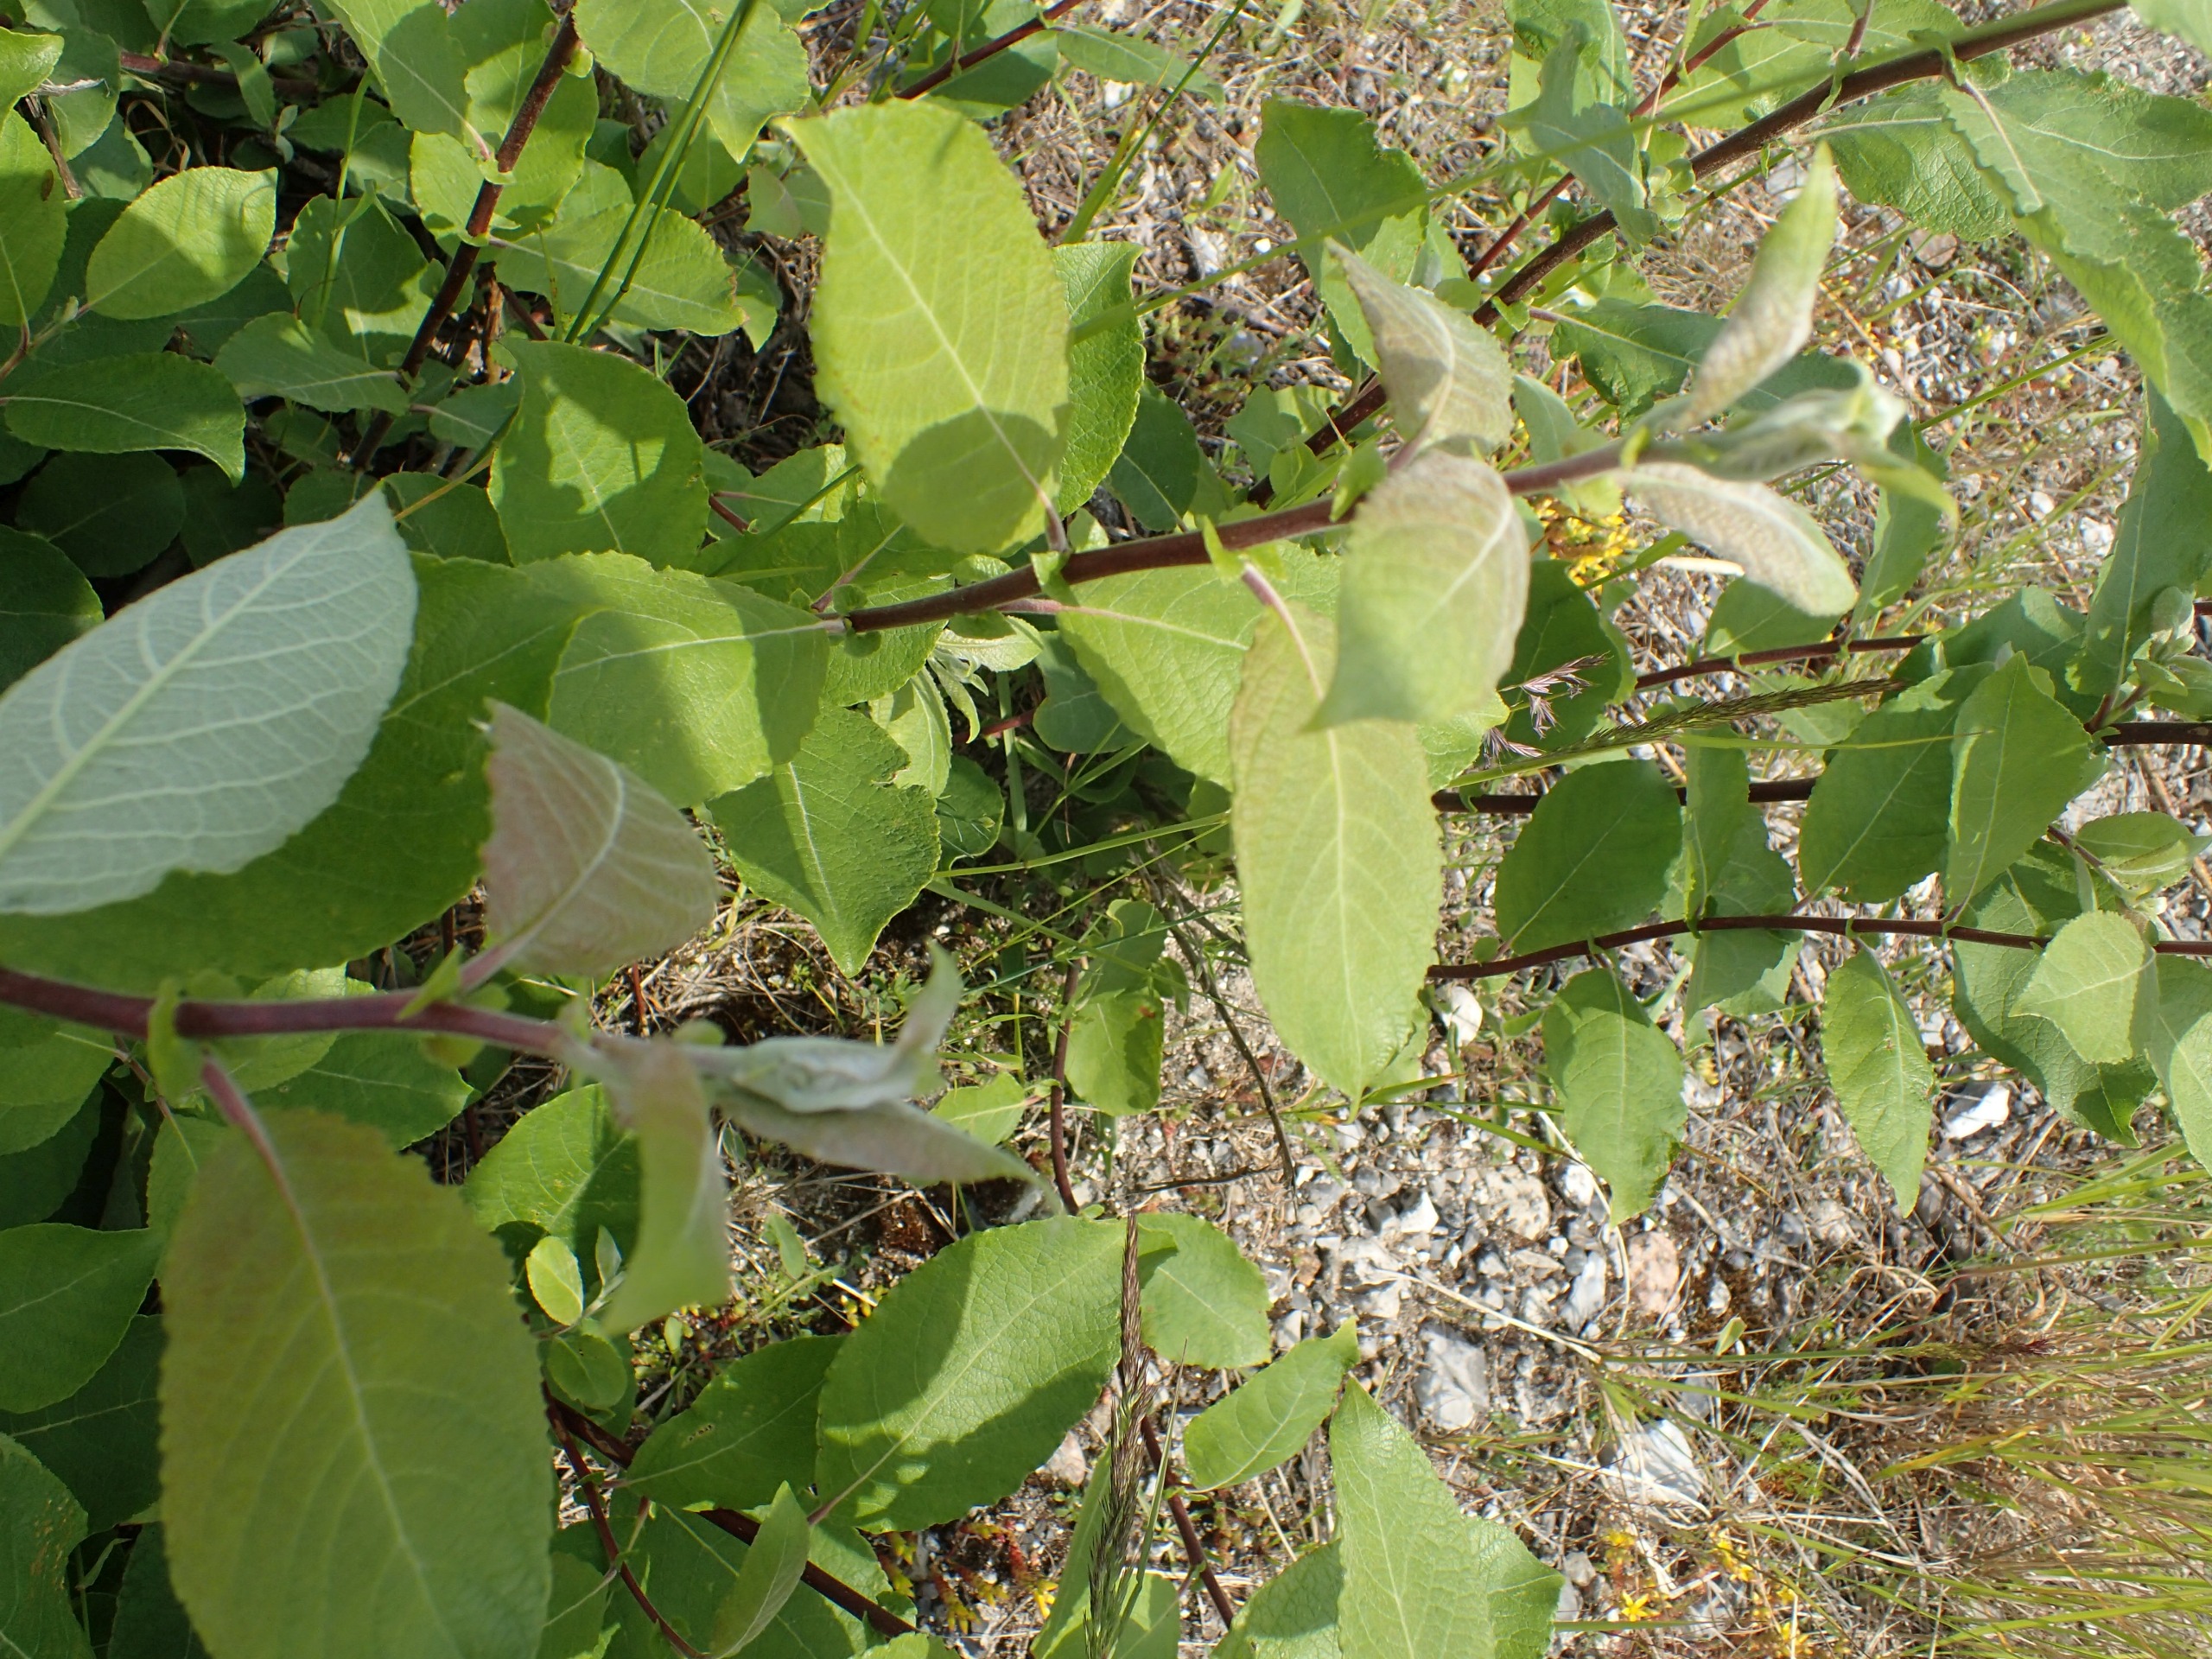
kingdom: Plantae
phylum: Tracheophyta
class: Magnoliopsida
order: Malpighiales
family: Salicaceae
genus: Salix
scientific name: Salix caprea
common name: Selje-pil
